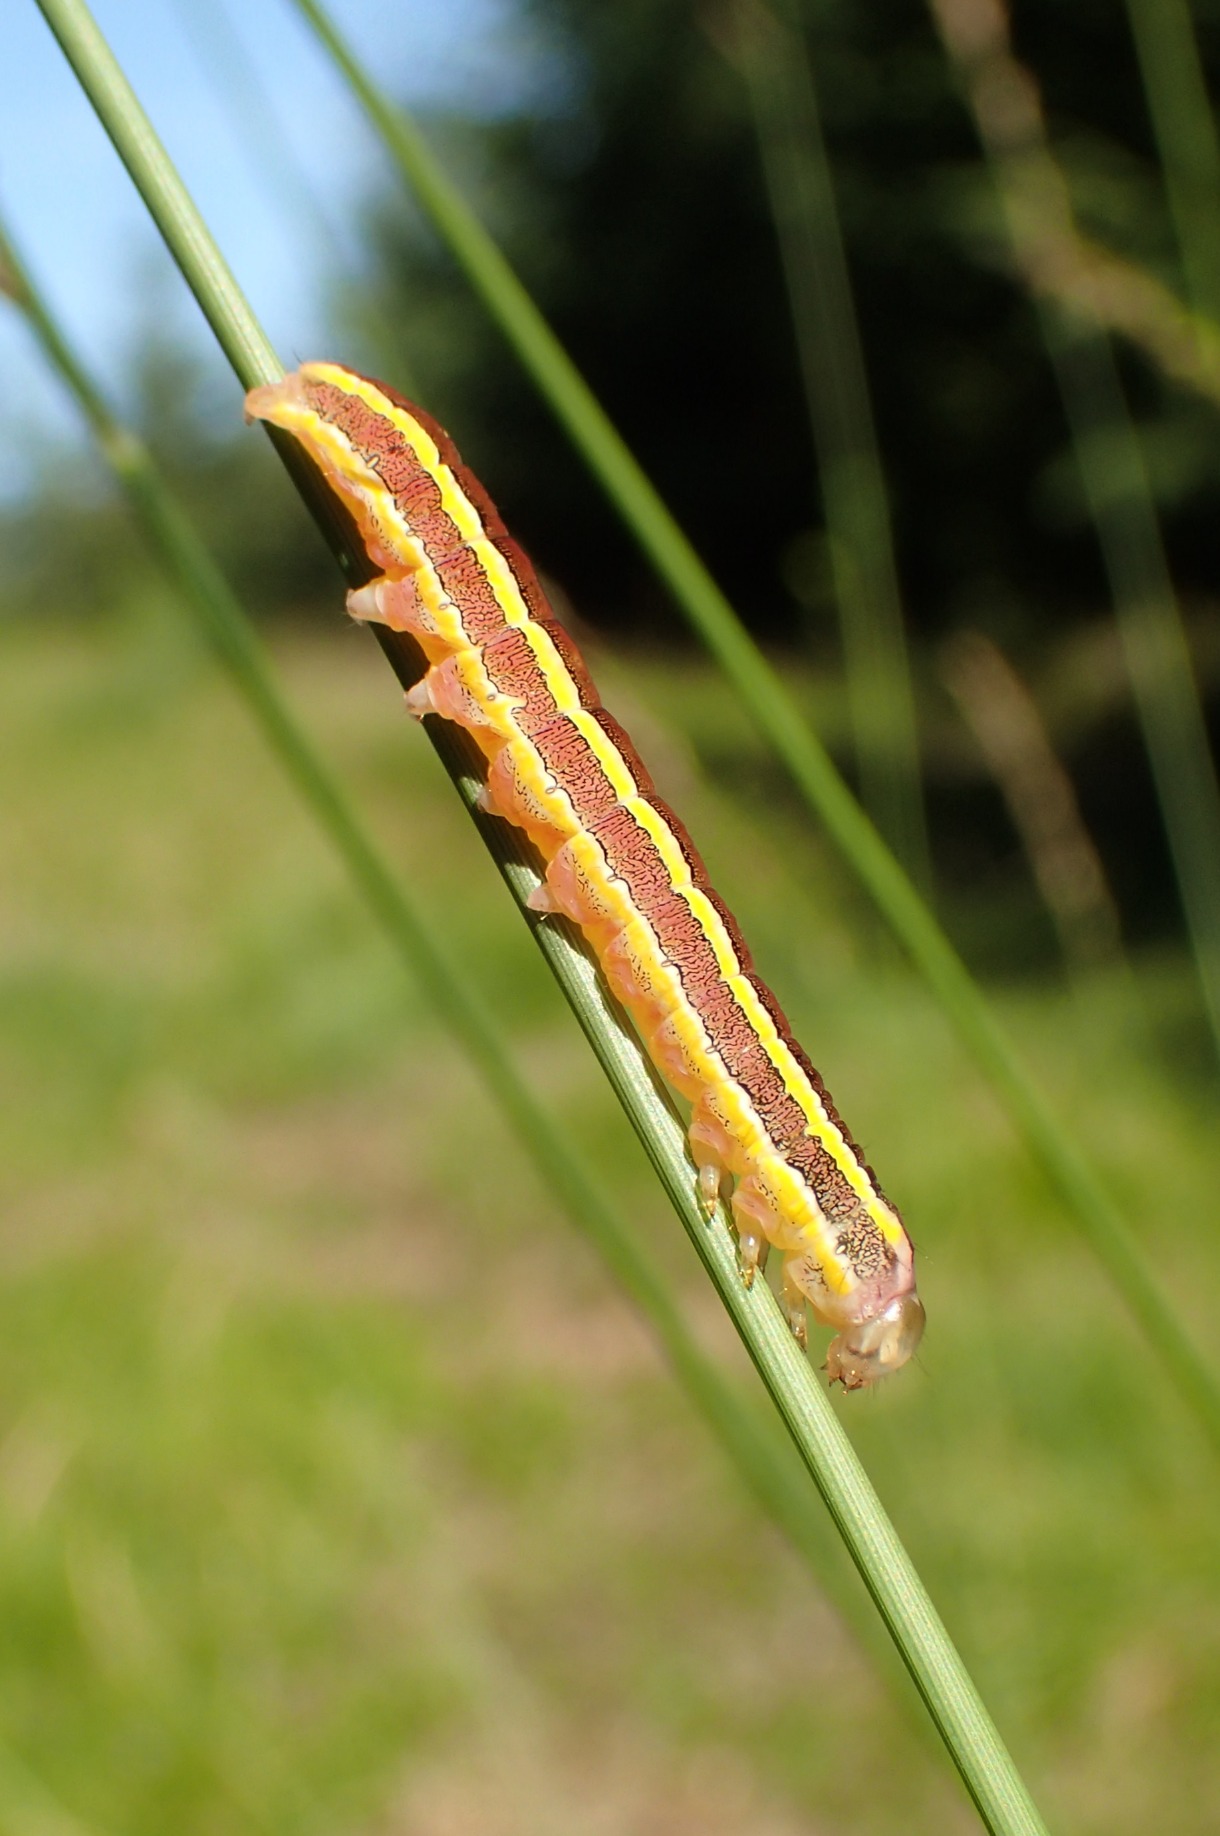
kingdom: Animalia
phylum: Arthropoda
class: Insecta
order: Lepidoptera
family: Noctuidae
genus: Ceramica
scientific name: Ceramica pisi
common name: Ærteugle
